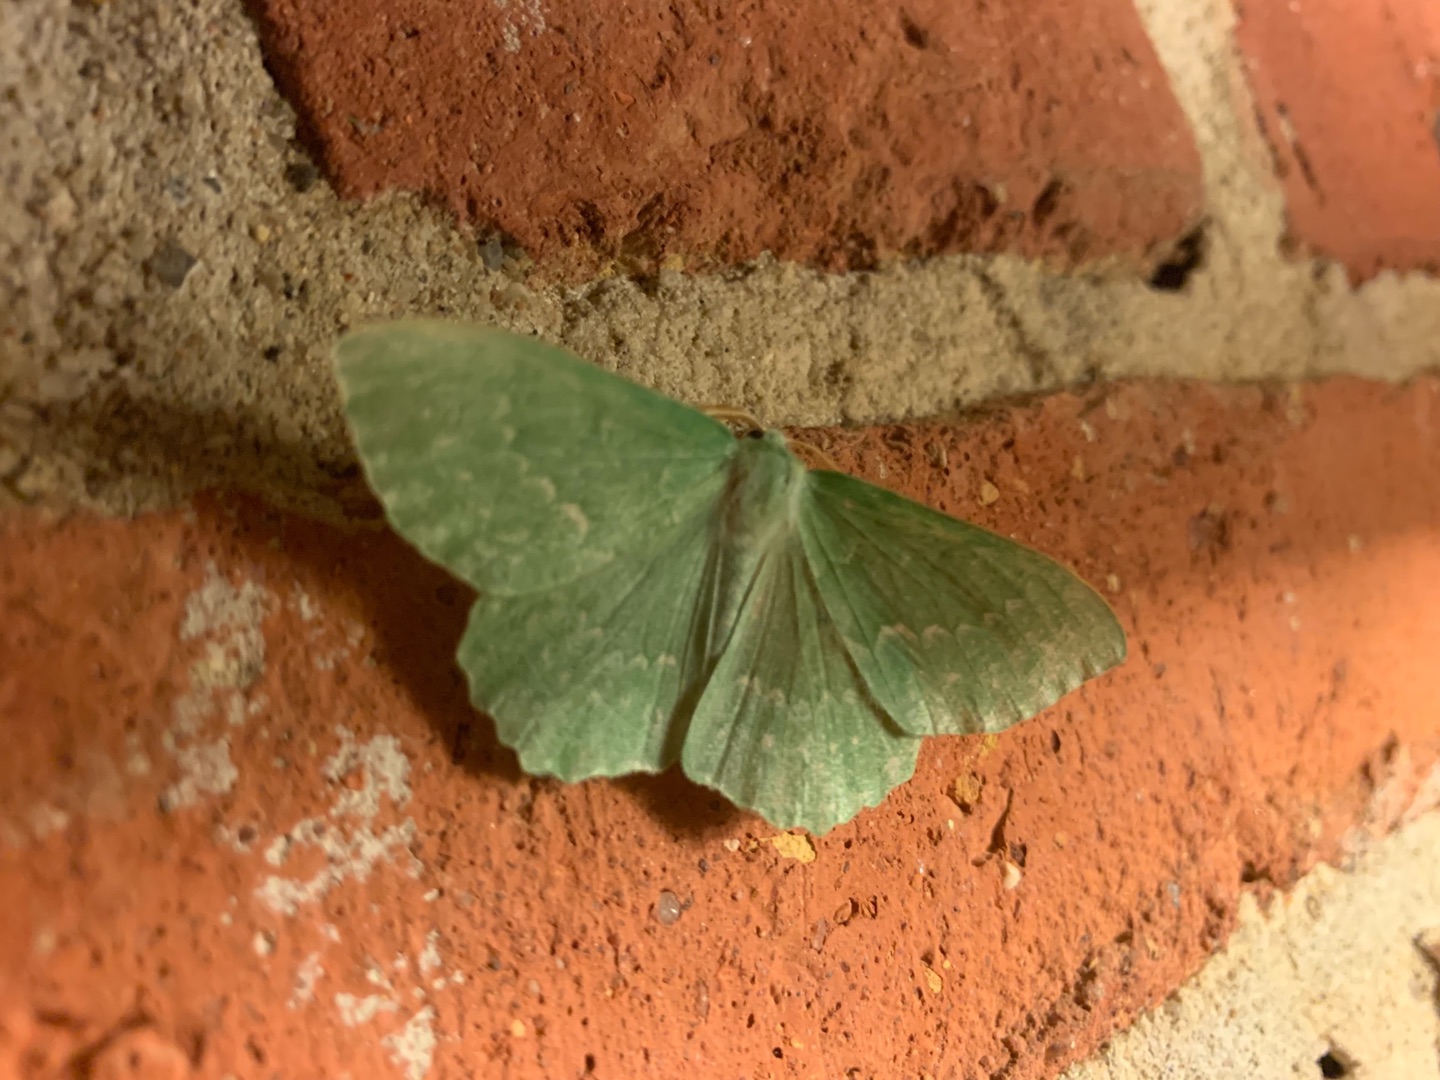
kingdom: Animalia
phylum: Arthropoda
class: Insecta
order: Lepidoptera
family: Geometridae
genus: Geometra
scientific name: Geometra papilionaria
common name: Grøn birkemåler
